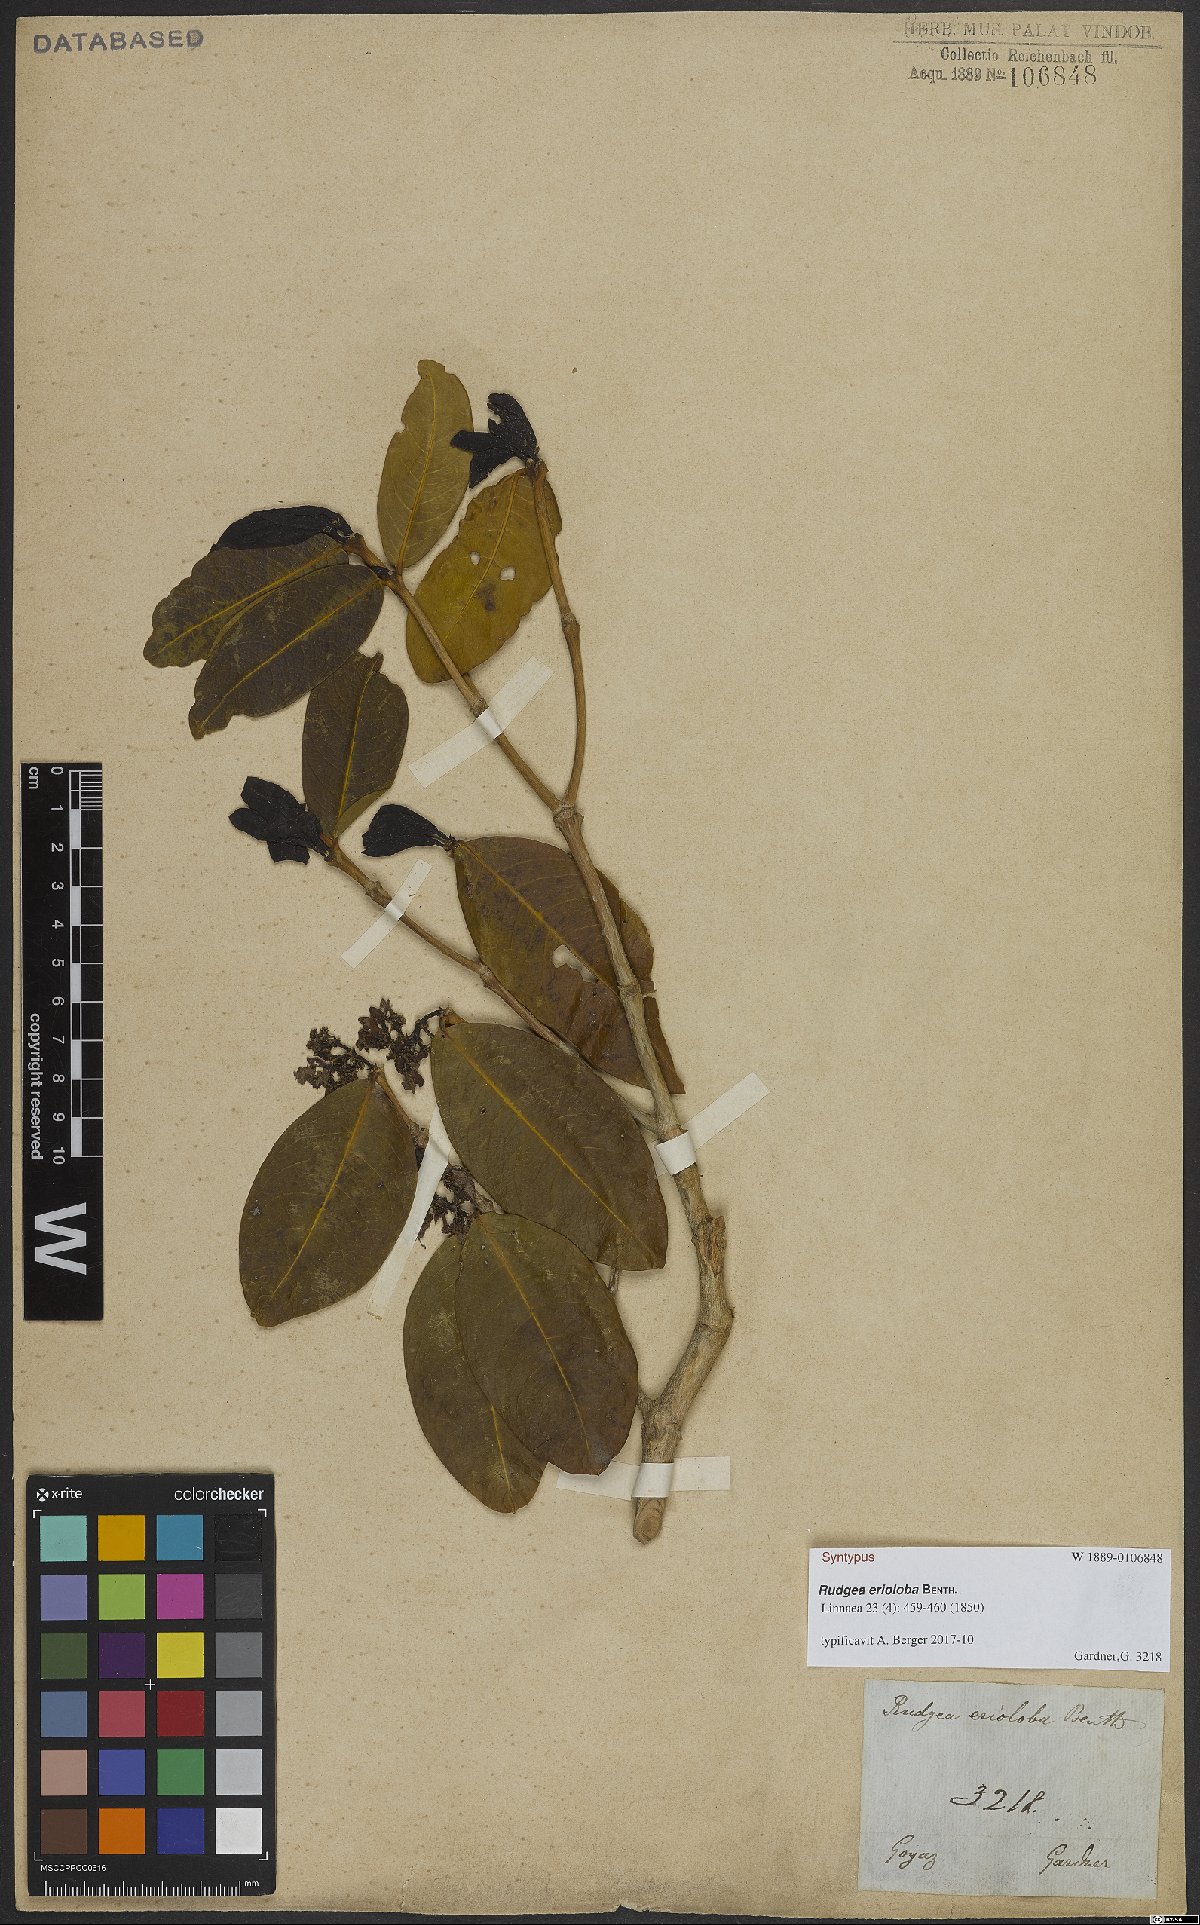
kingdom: Plantae
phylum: Tracheophyta
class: Magnoliopsida
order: Gentianales
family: Rubiaceae
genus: Rudgea
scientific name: Rudgea erioloba
